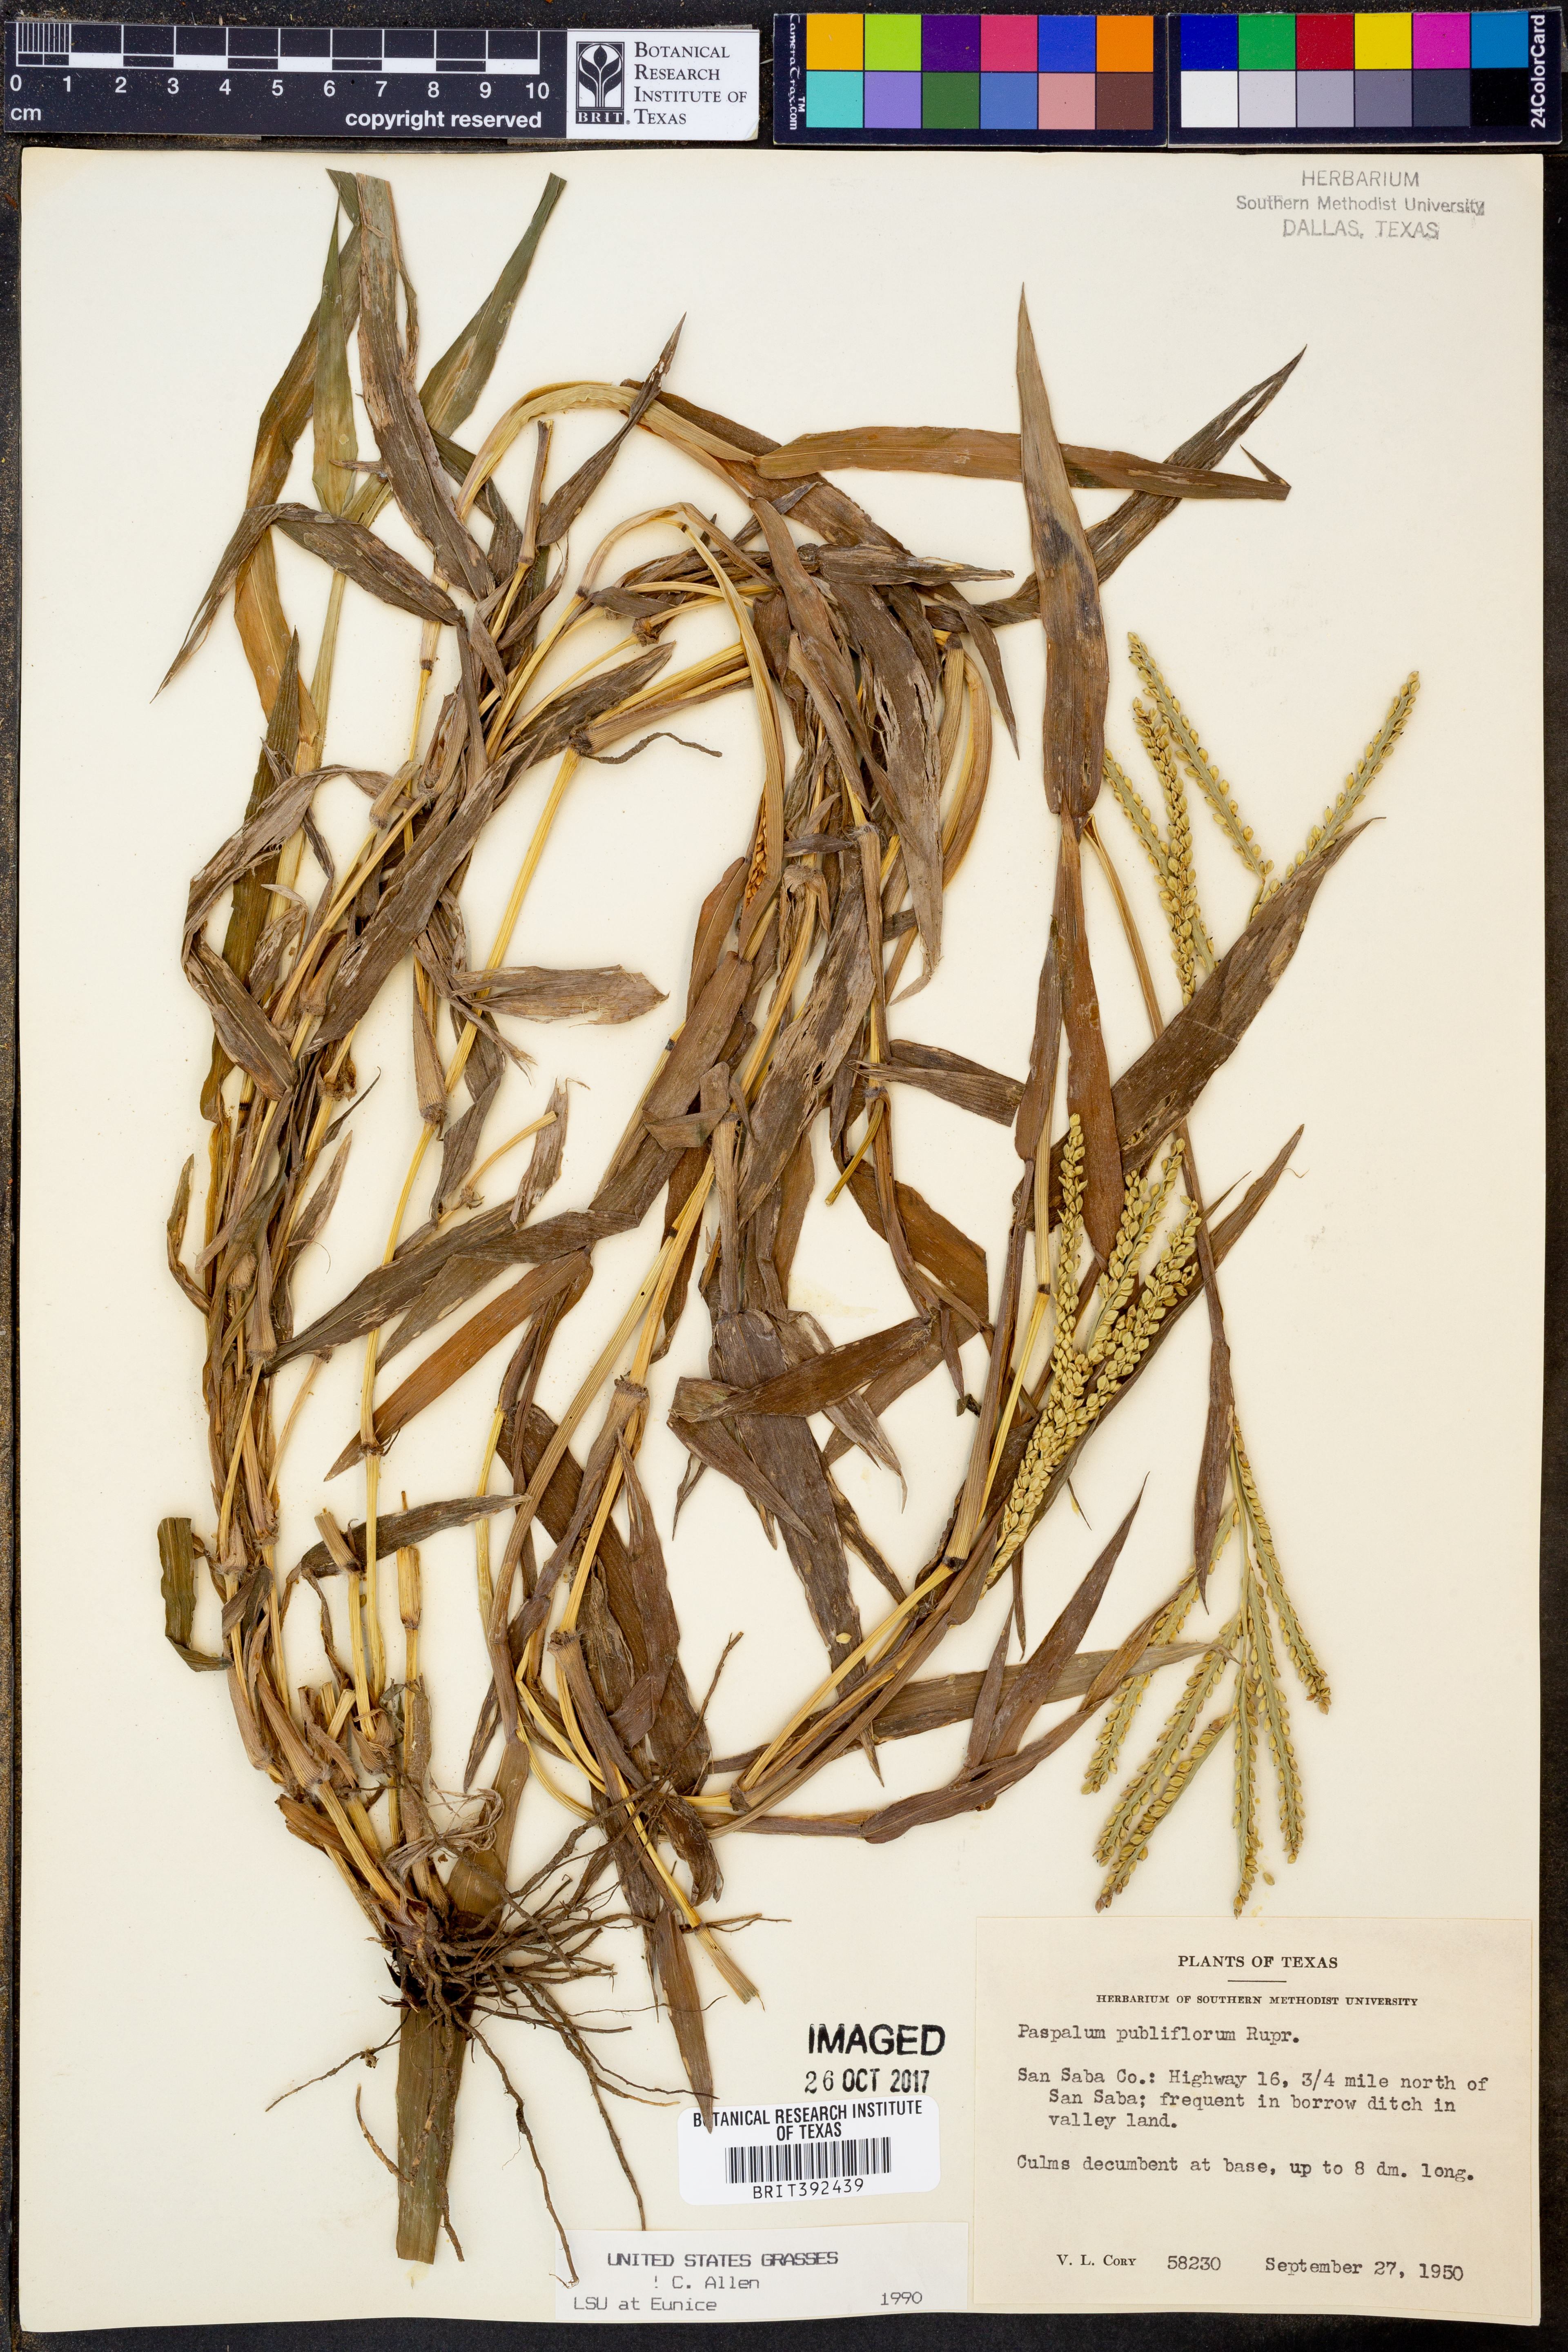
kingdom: Plantae
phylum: Tracheophyta
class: Liliopsida
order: Poales
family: Poaceae
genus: Paspalum
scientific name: Paspalum pubiflorum
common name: Hairy-seed paspalum
